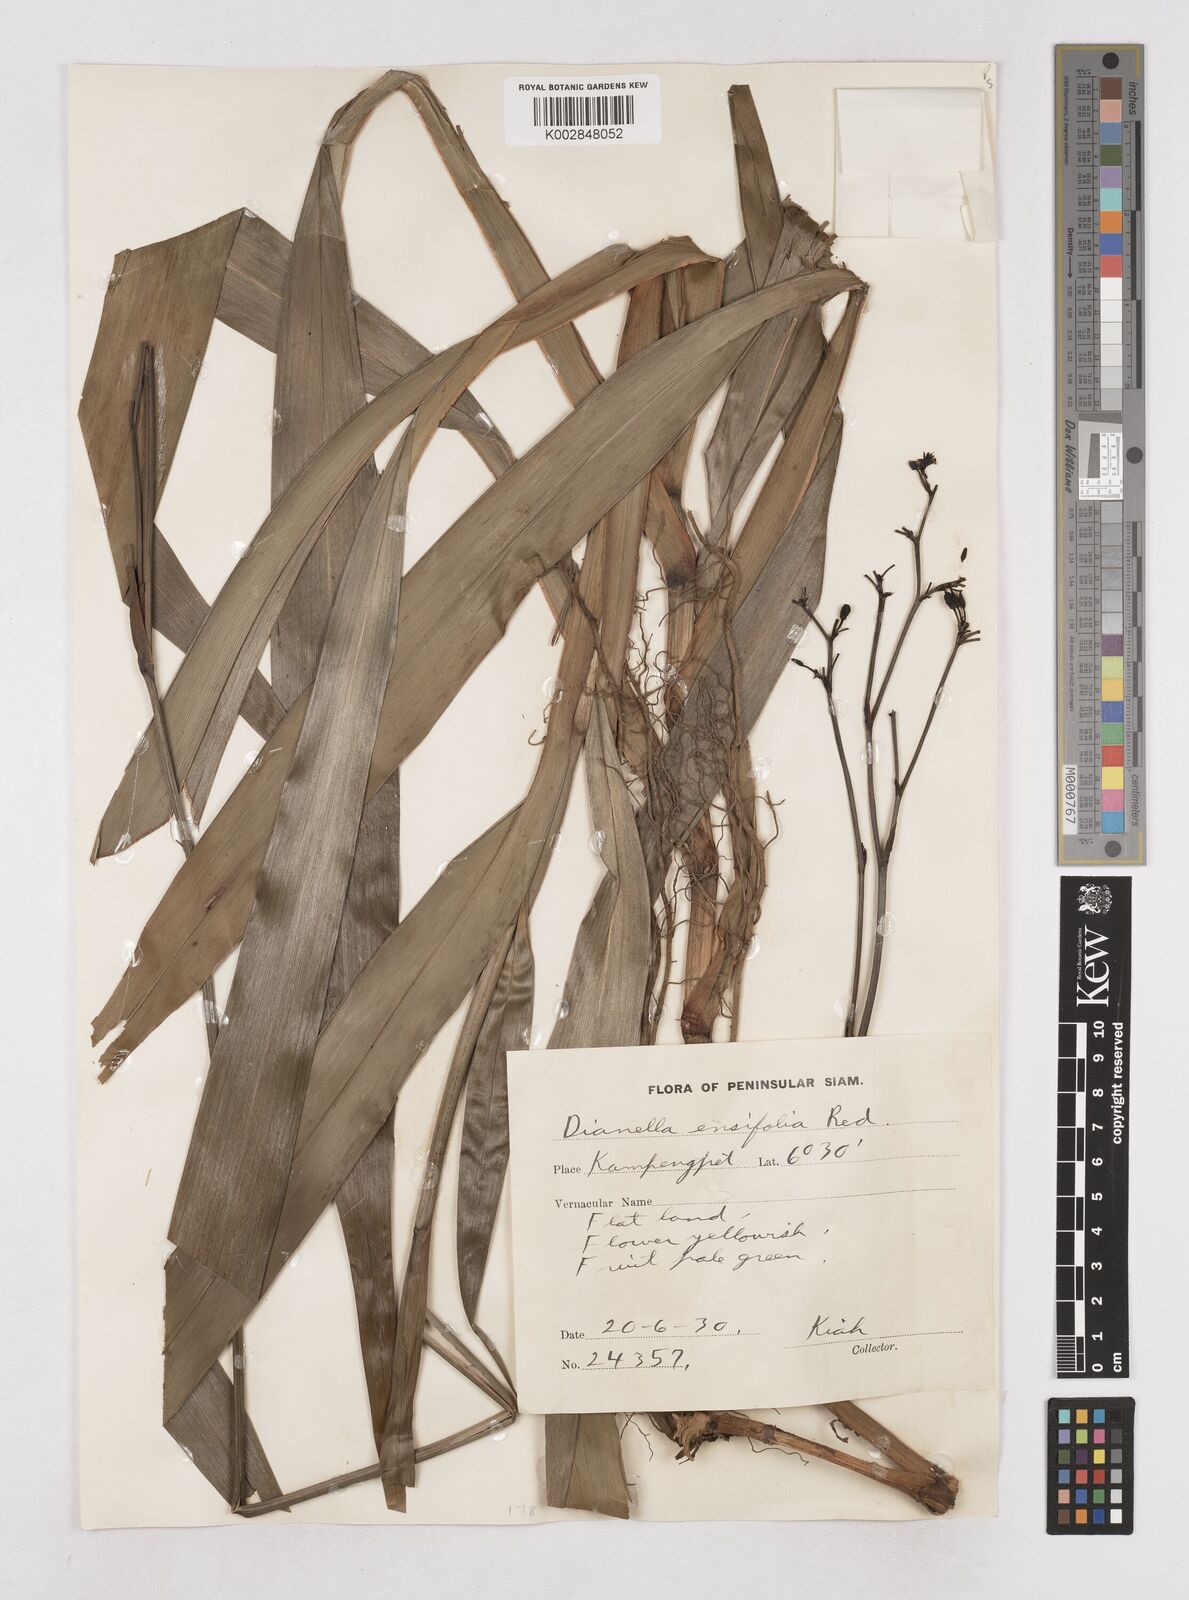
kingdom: Plantae
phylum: Tracheophyta
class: Liliopsida
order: Asparagales
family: Asphodelaceae
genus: Dianella
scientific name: Dianella ensifolia
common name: New zealand lilyplant
